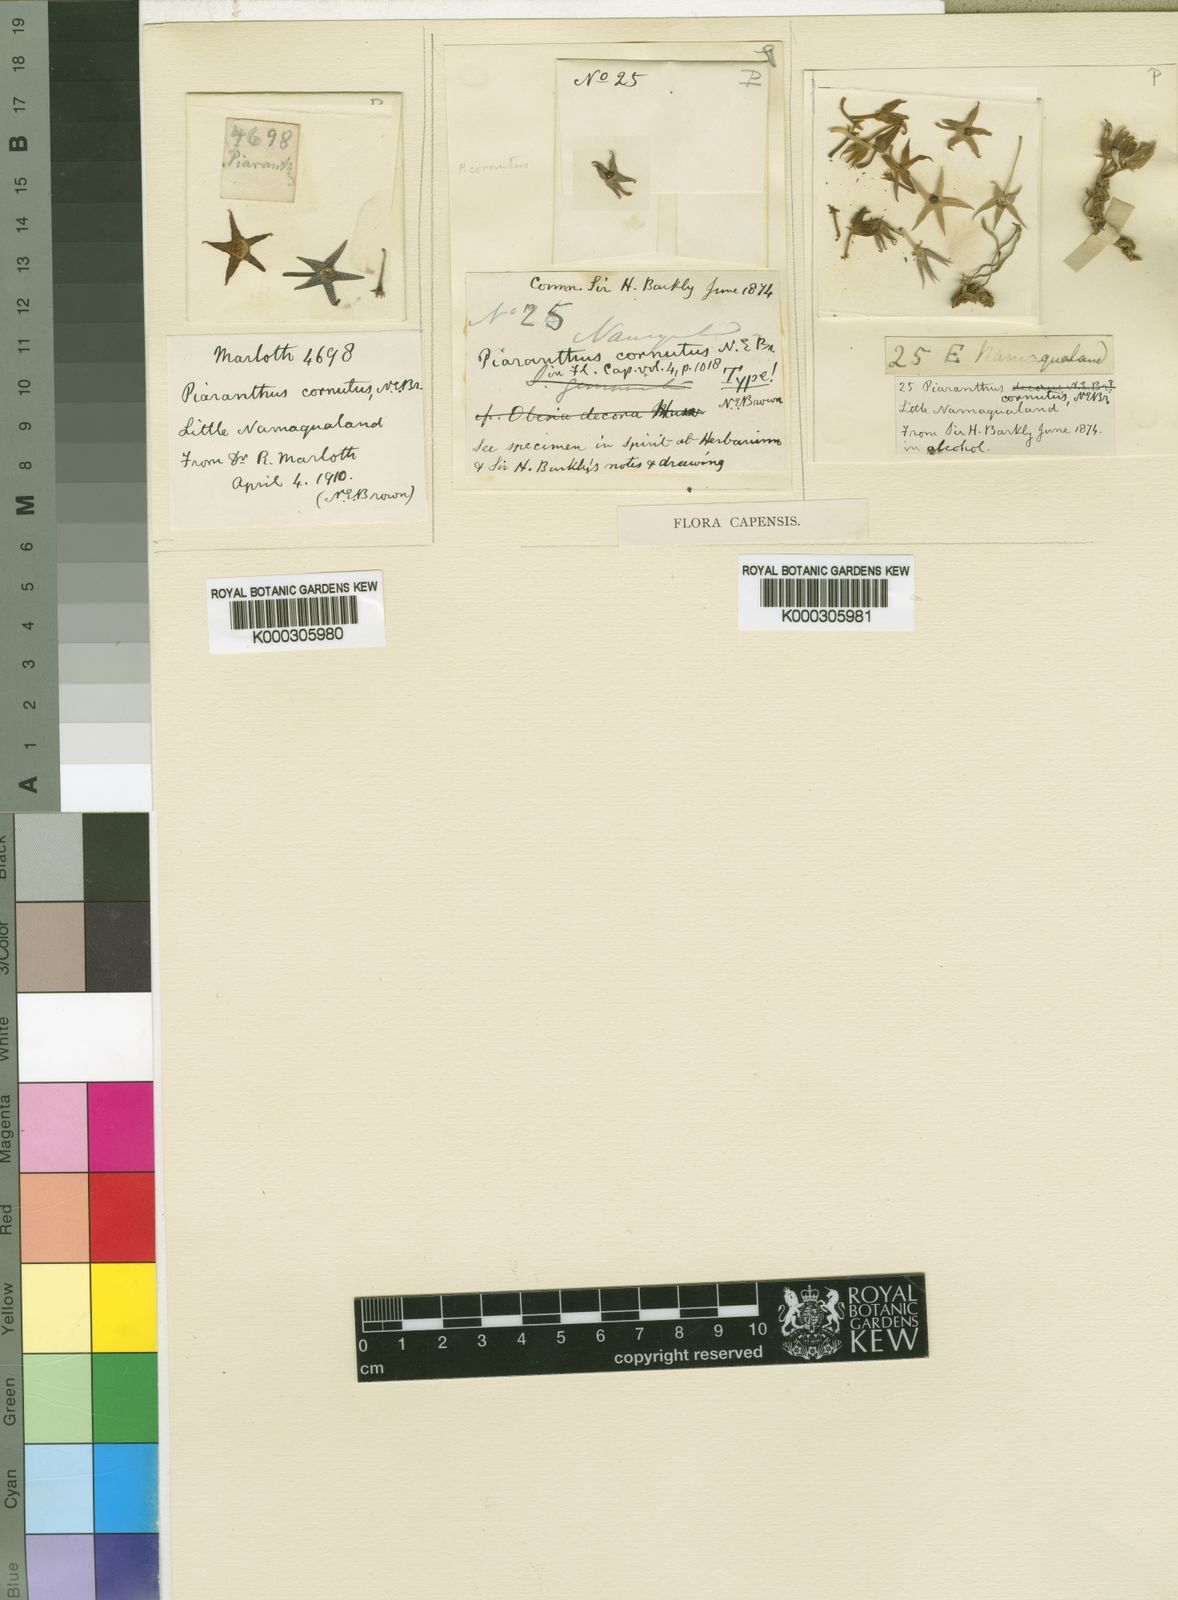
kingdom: Plantae
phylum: Tracheophyta
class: Magnoliopsida
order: Gentianales
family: Apocynaceae
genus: Ceropegia
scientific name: Ceropegia cornuta
